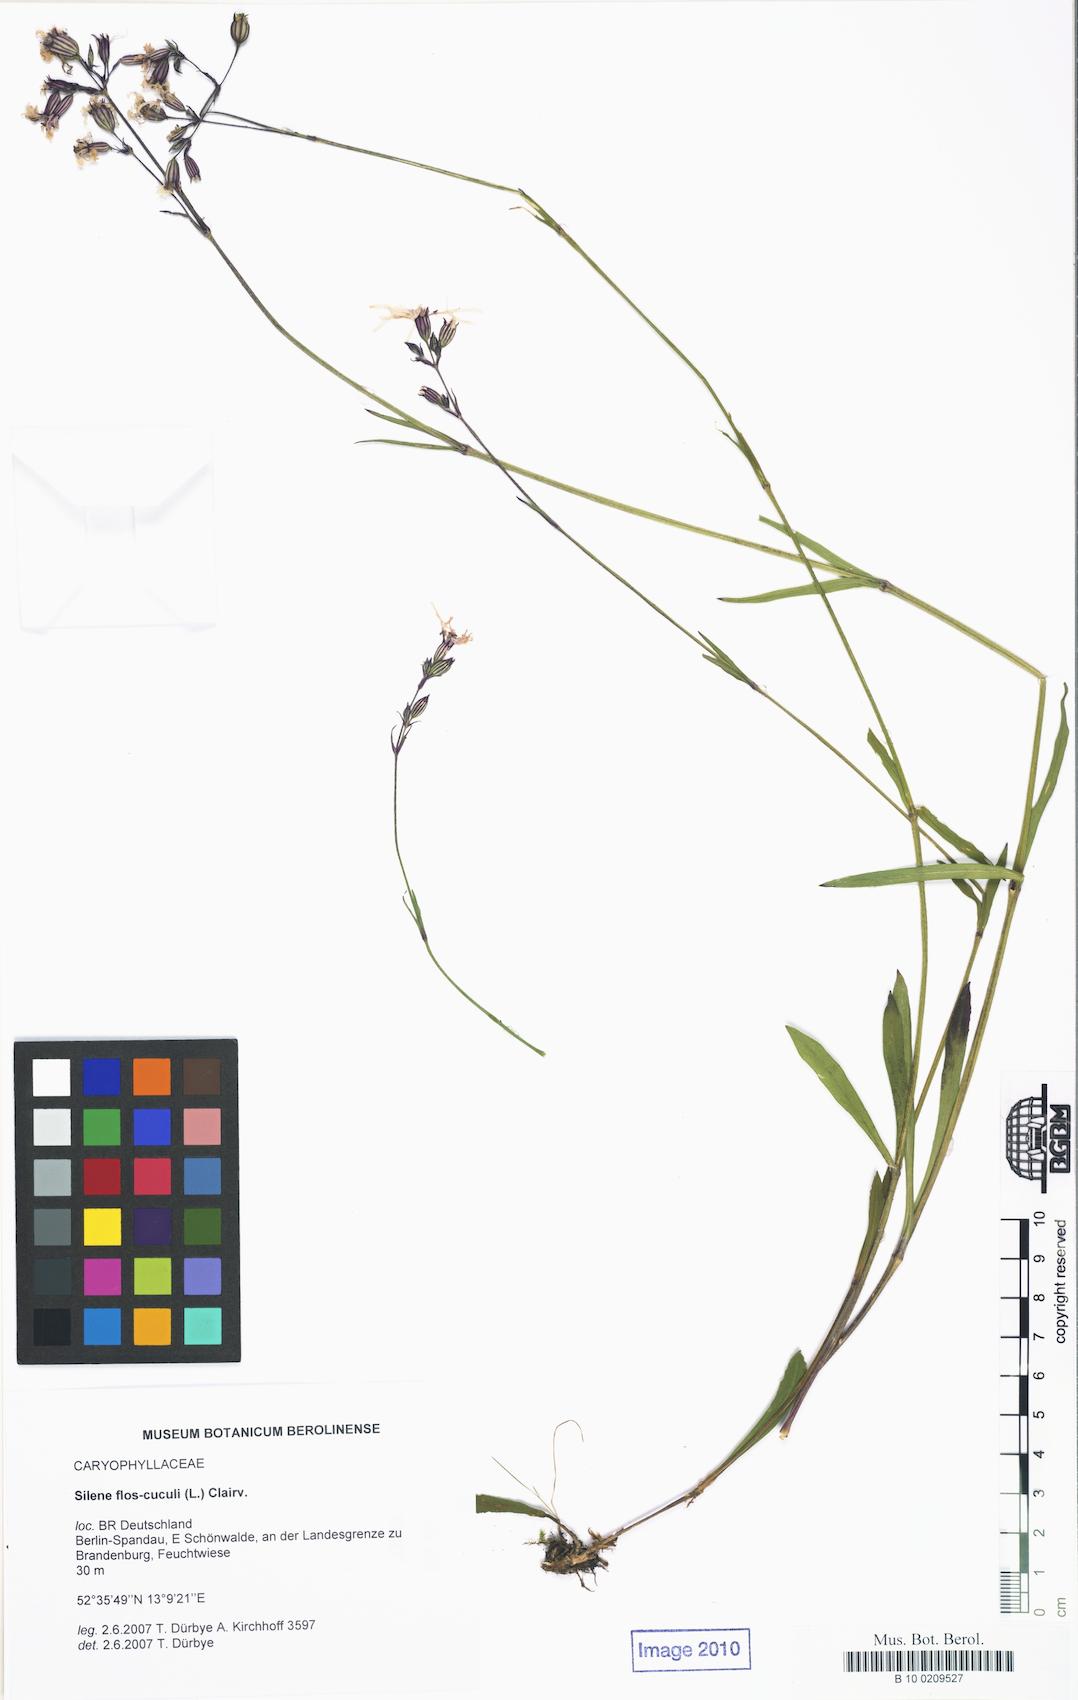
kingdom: Plantae
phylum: Tracheophyta
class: Magnoliopsida
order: Caryophyllales
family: Caryophyllaceae
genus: Silene
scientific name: Silene flos-cuculi
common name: Ragged-robin
